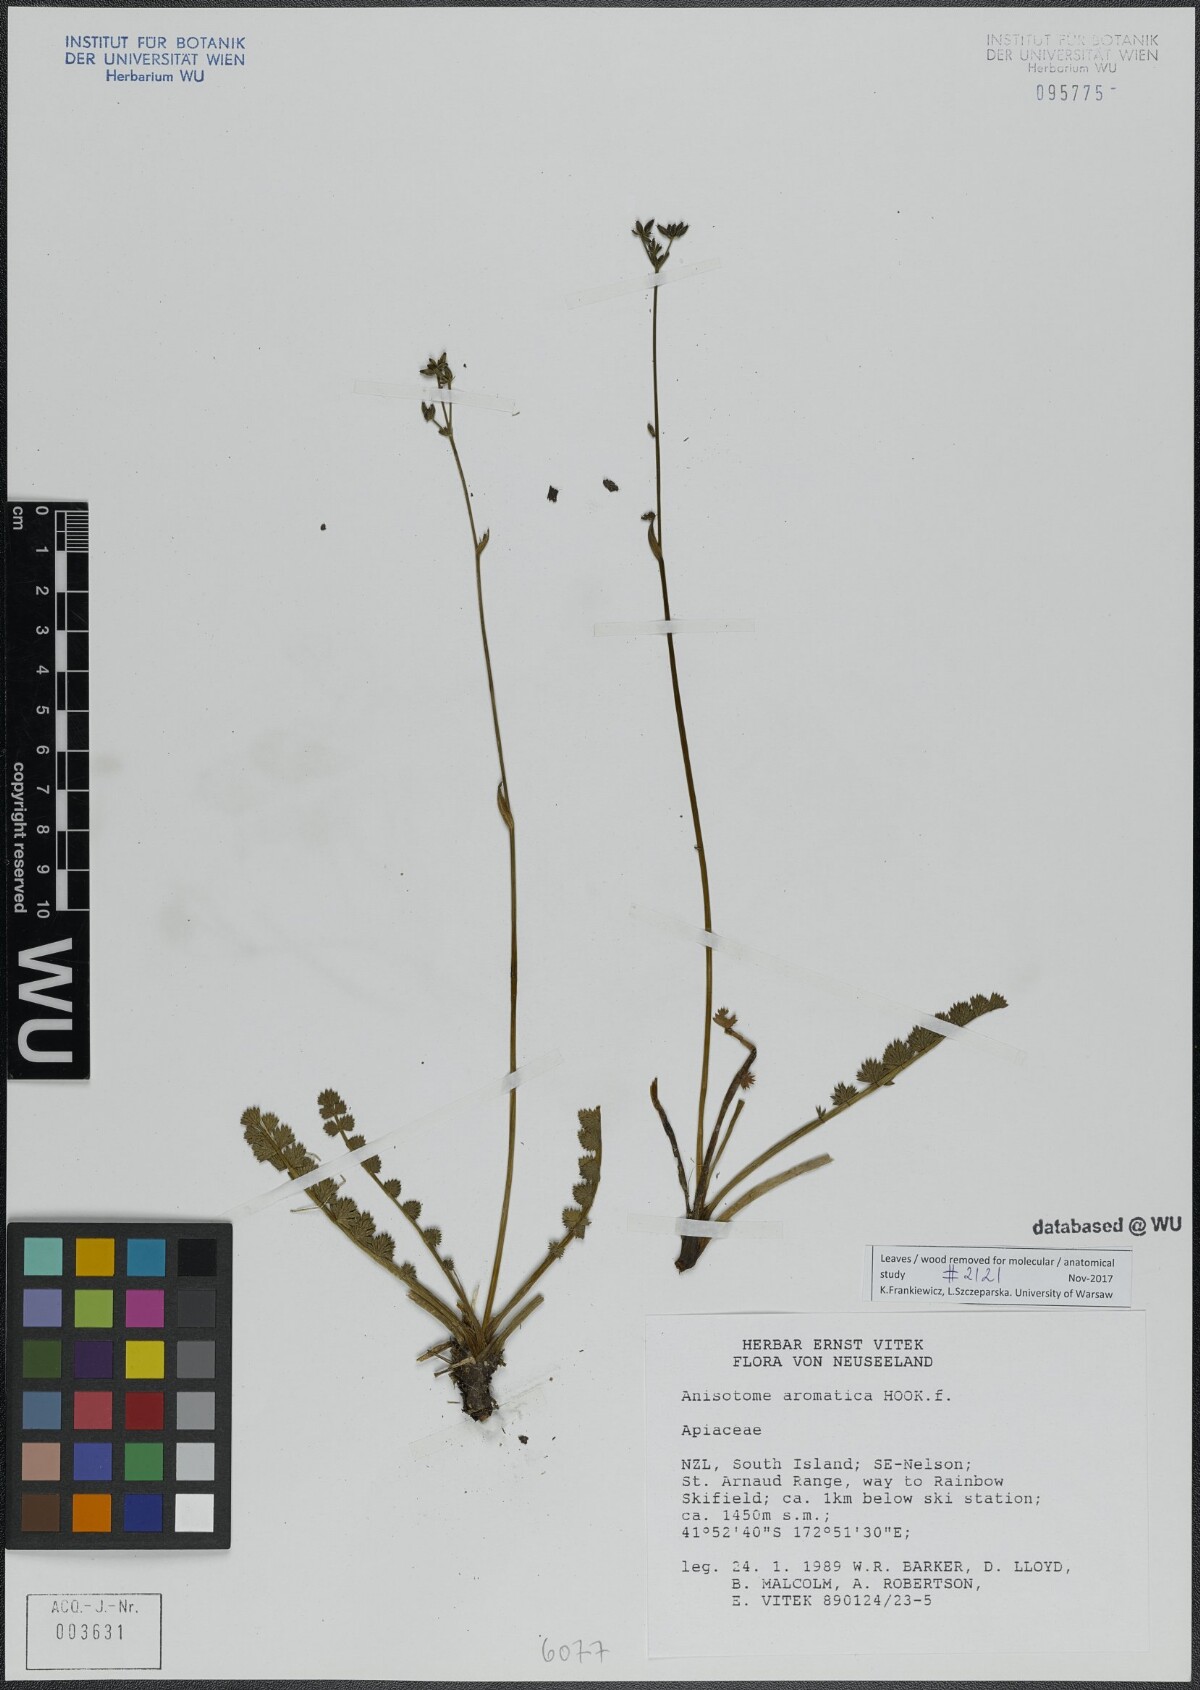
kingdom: Plantae
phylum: Tracheophyta
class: Magnoliopsida
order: Apiales
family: Apiaceae
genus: Anisotome
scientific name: Anisotome aromatica
